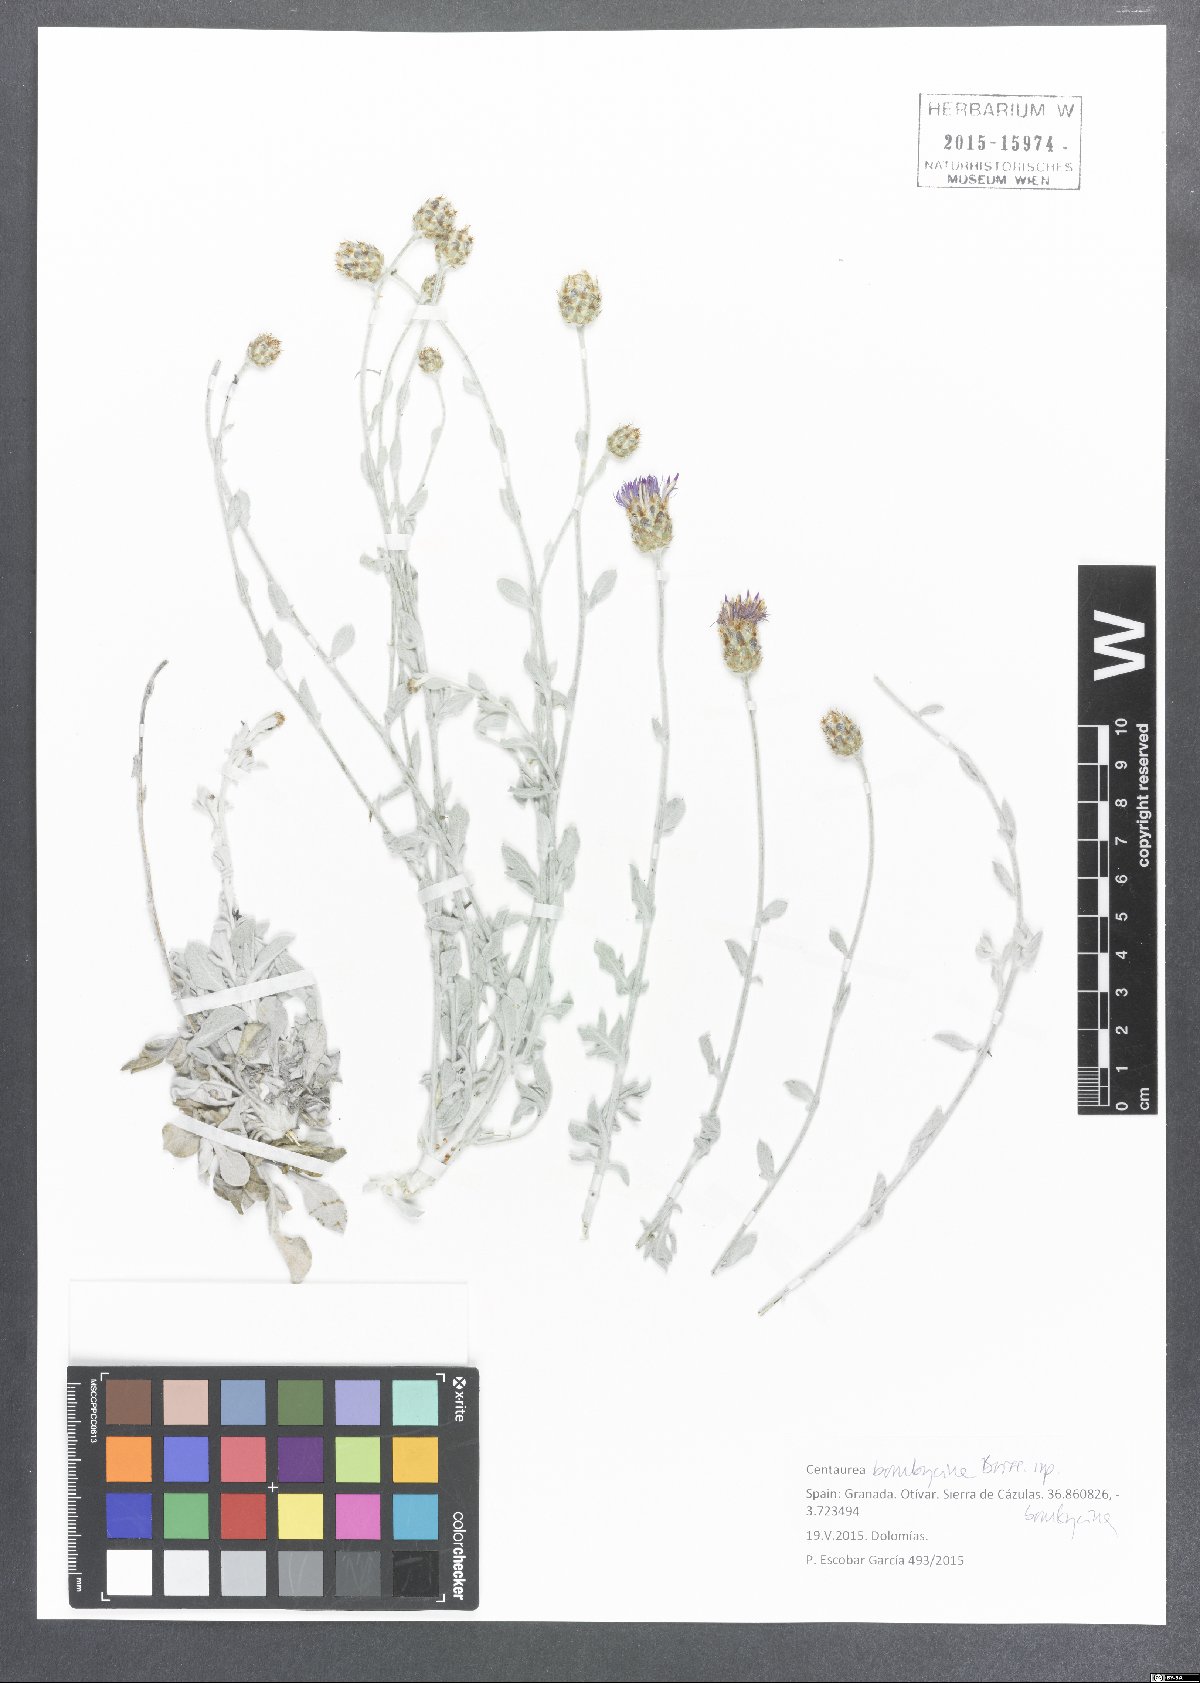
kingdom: Plantae
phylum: Tracheophyta
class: Magnoliopsida
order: Asterales
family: Asteraceae
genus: Centaurea
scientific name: Centaurea bombycina
